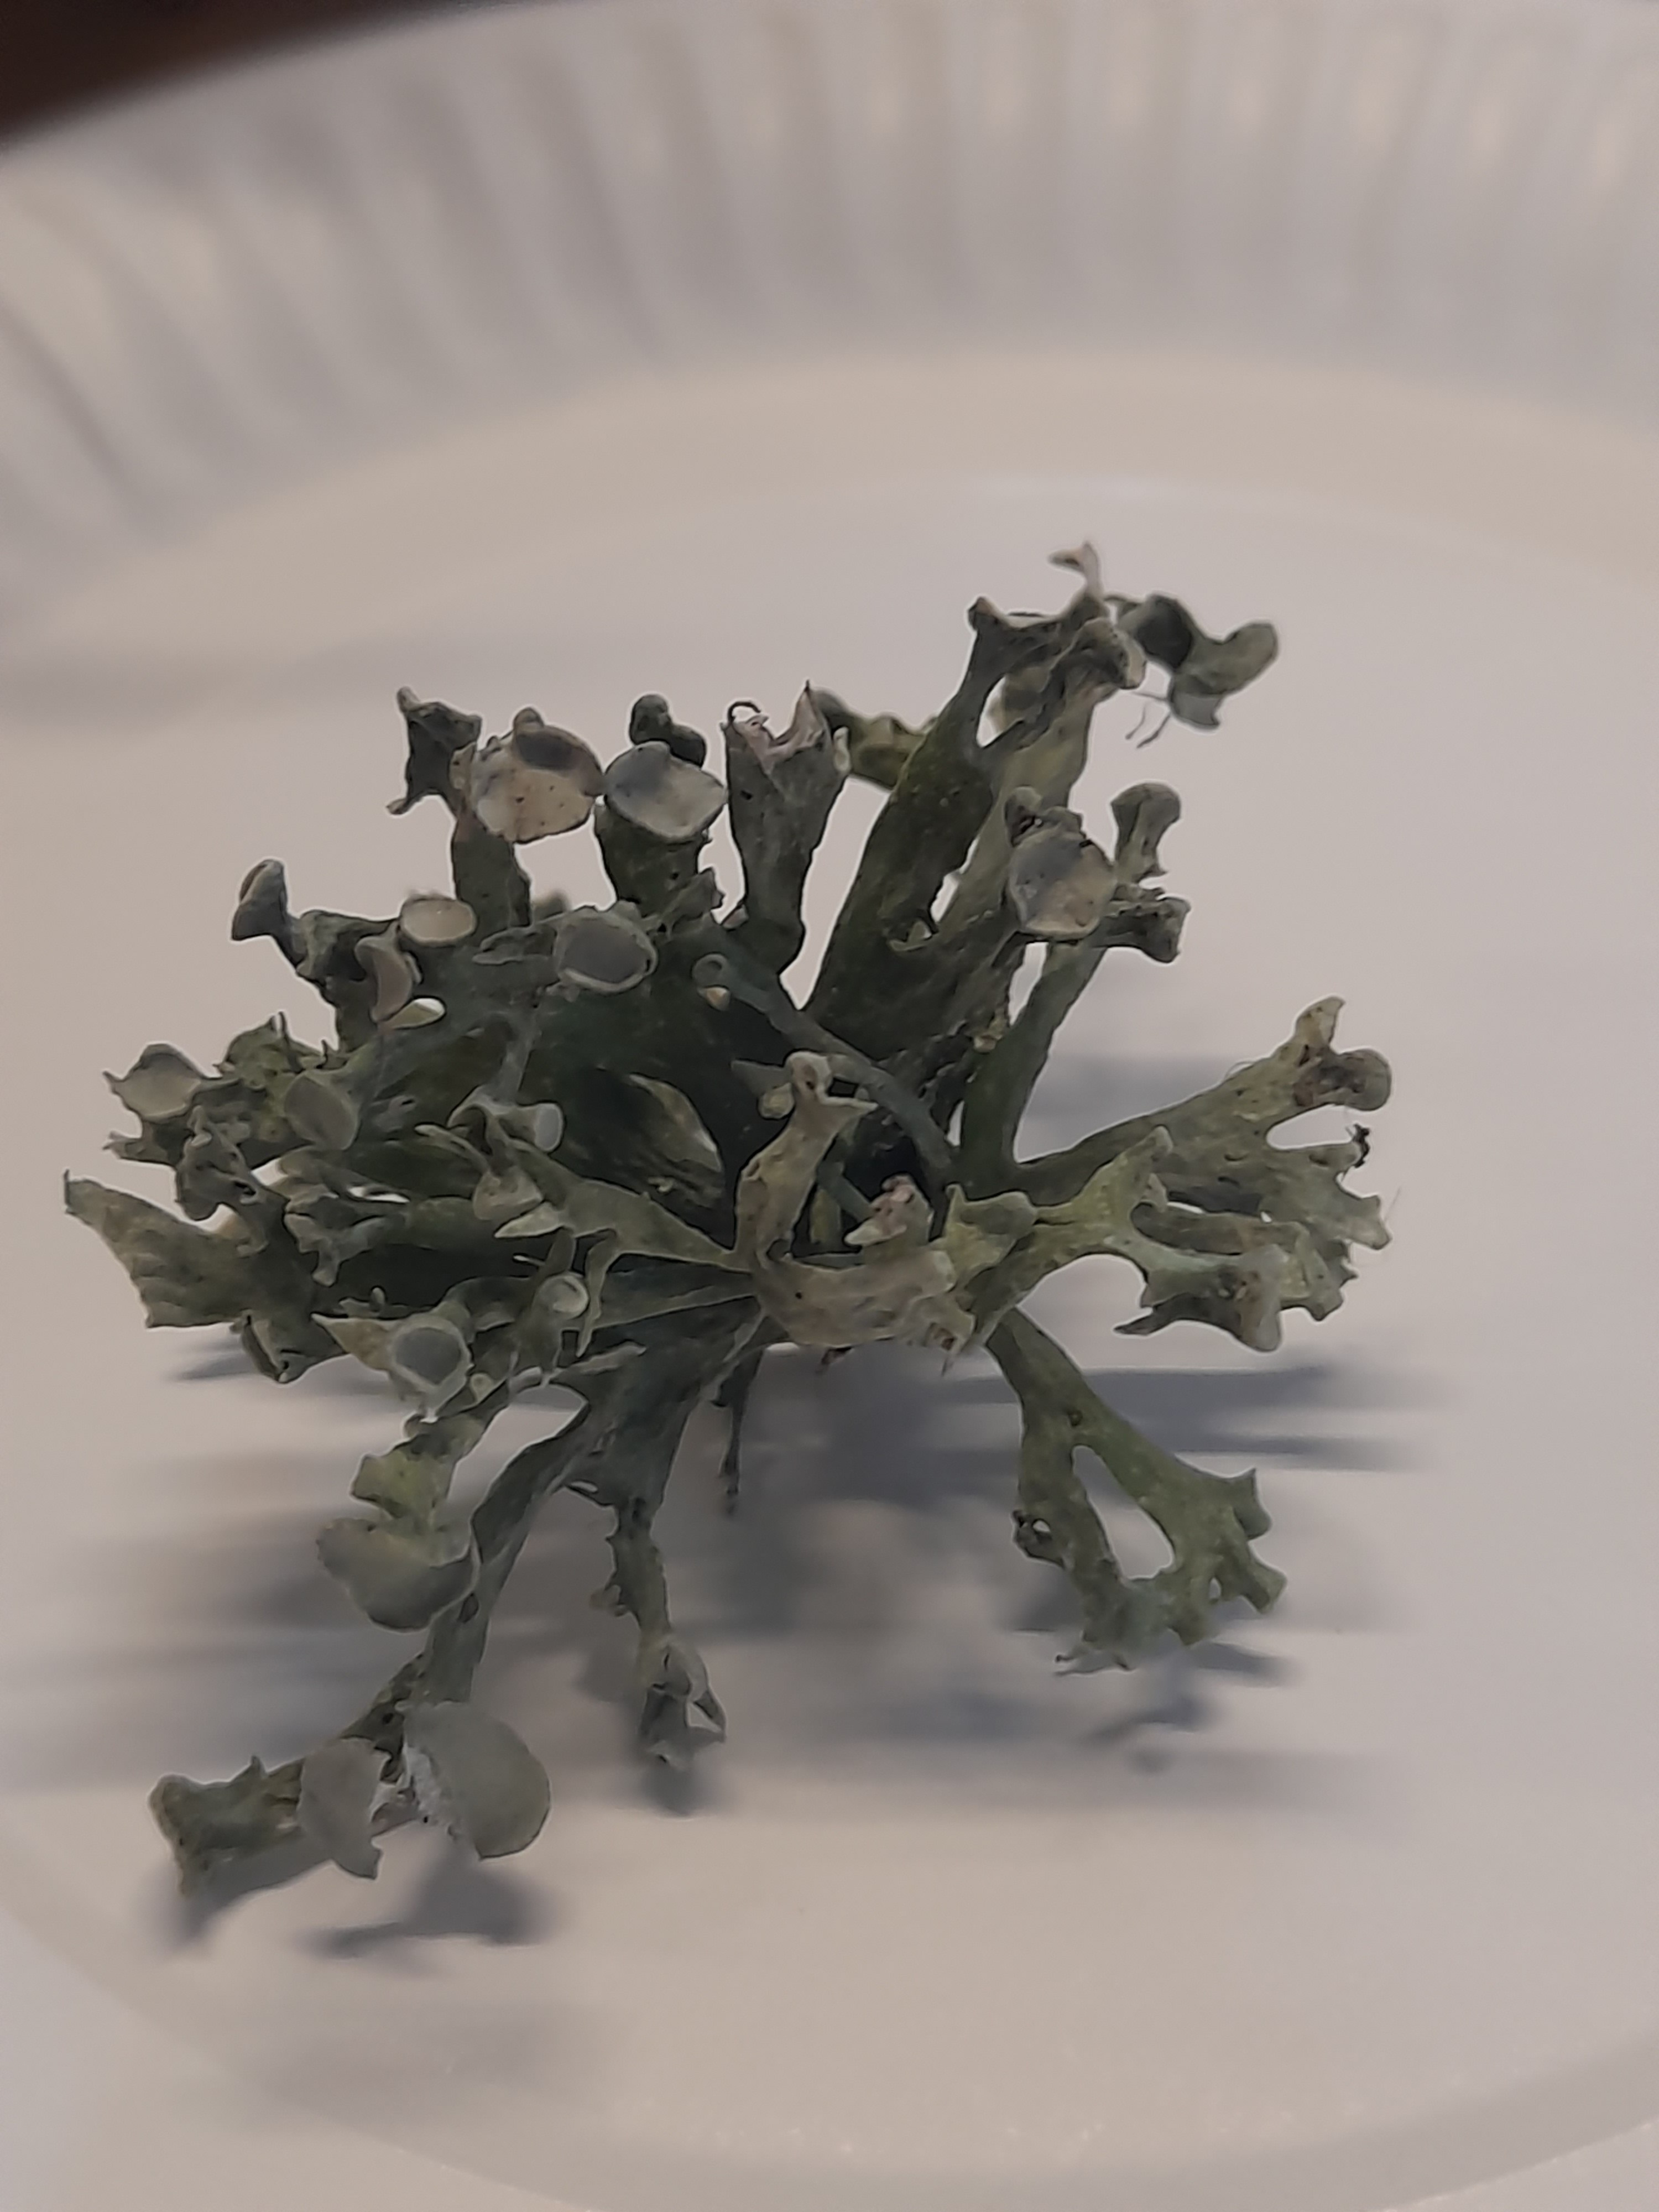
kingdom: Fungi
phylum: Ascomycota
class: Lecanoromycetes
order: Lecanorales
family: Ramalinaceae
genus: Ramalina
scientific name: Ramalina fastigiata
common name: tue-grenlav
